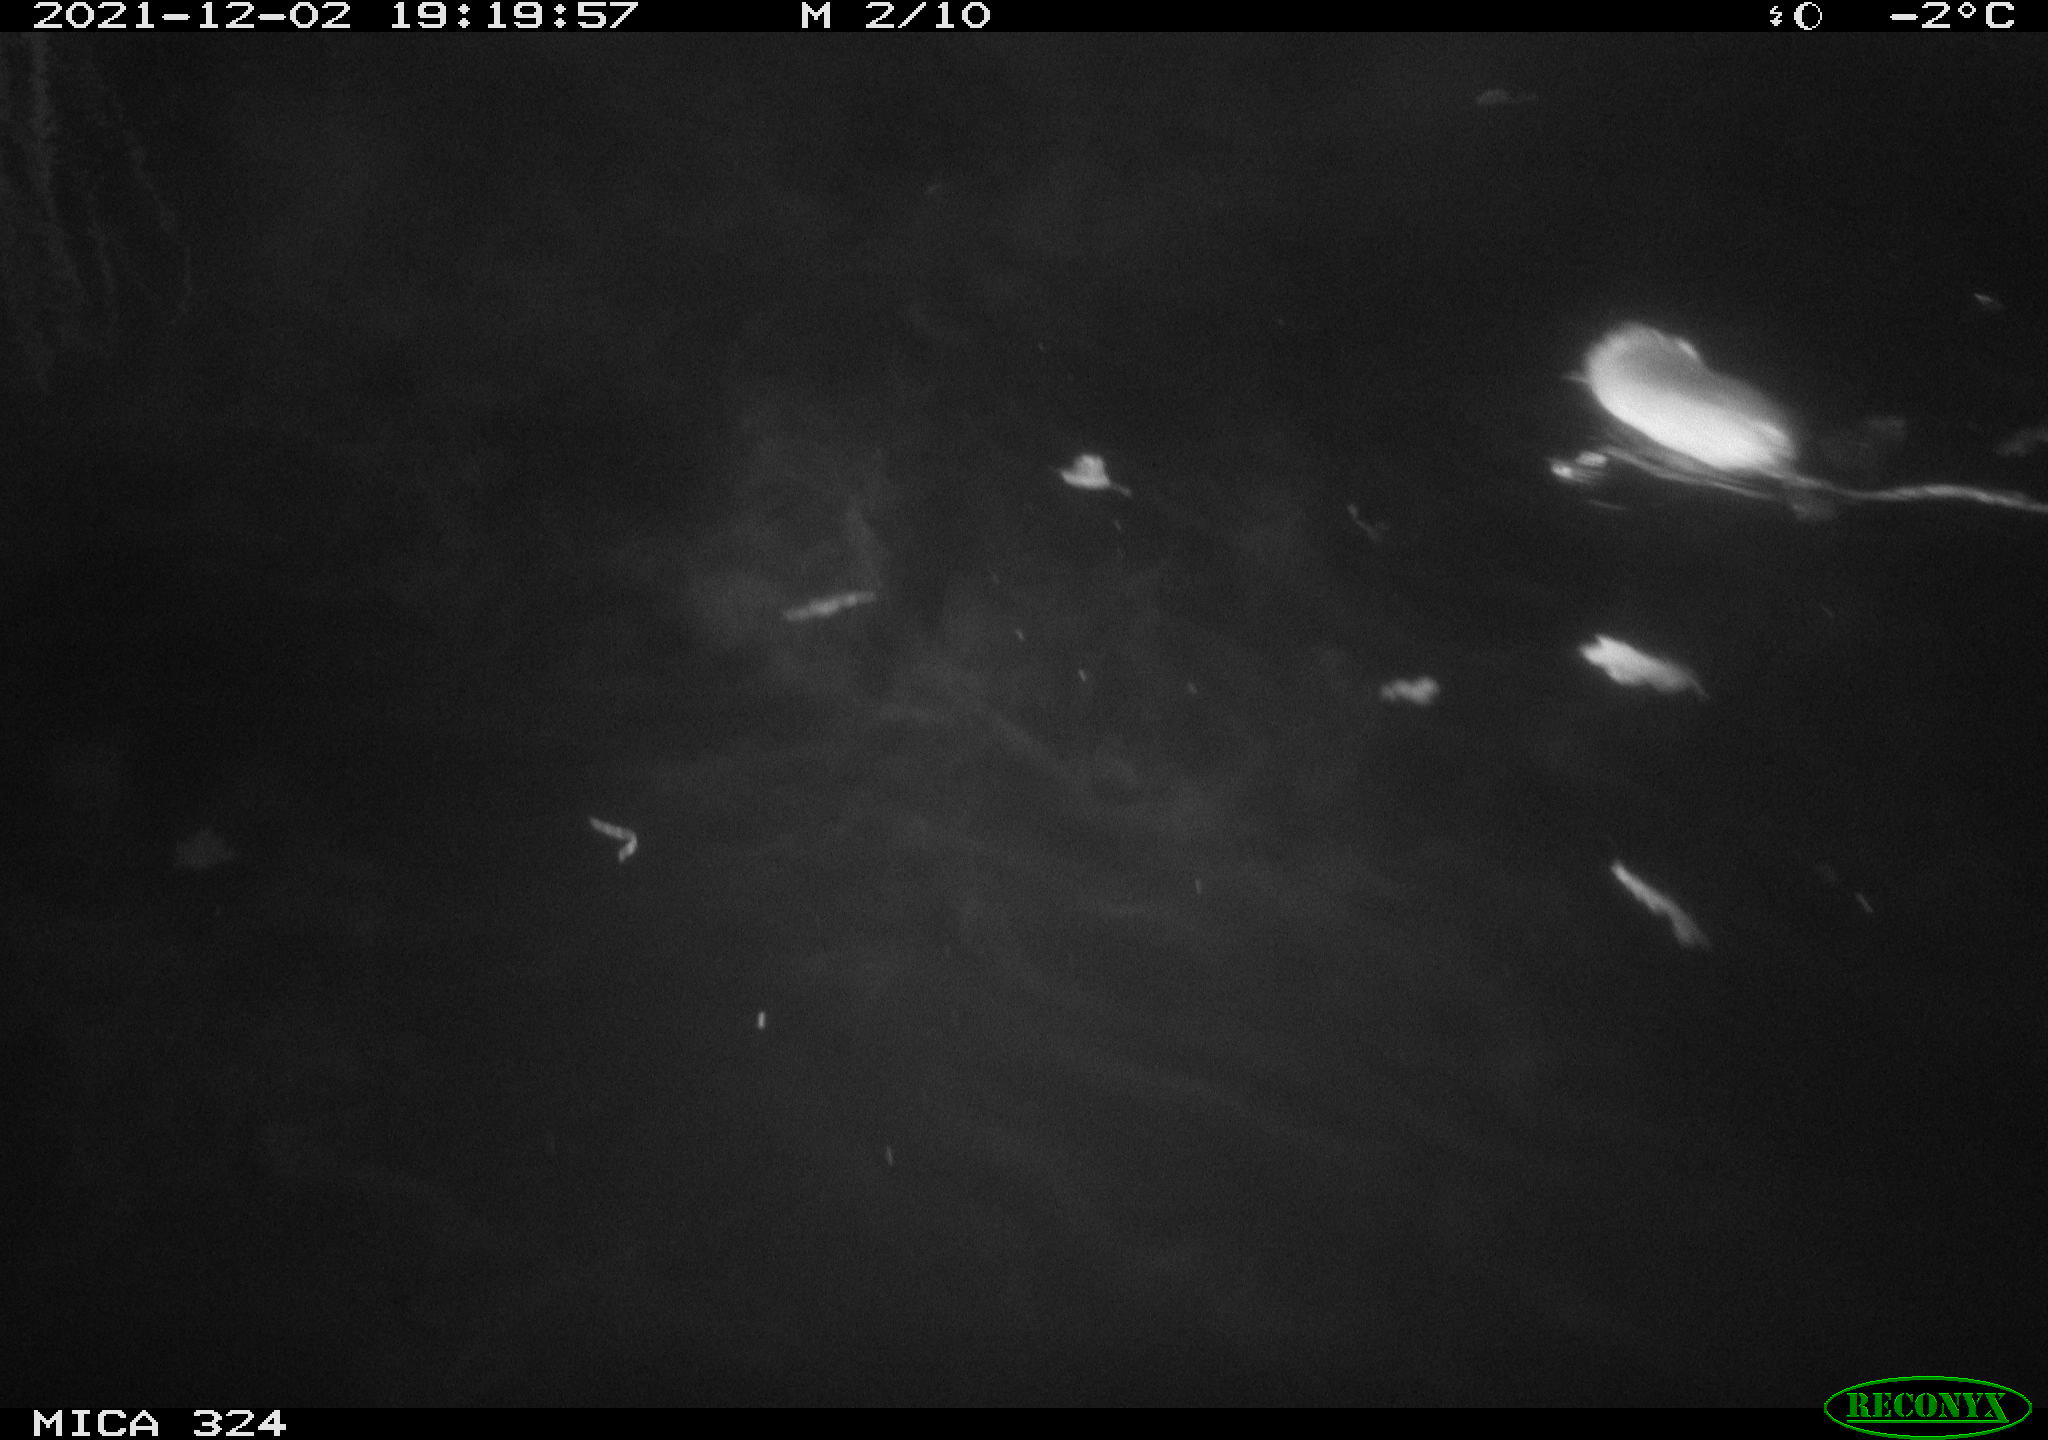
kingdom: Animalia
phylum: Chordata
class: Mammalia
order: Rodentia
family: Cricetidae
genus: Ondatra
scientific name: Ondatra zibethicus
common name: Muskrat
